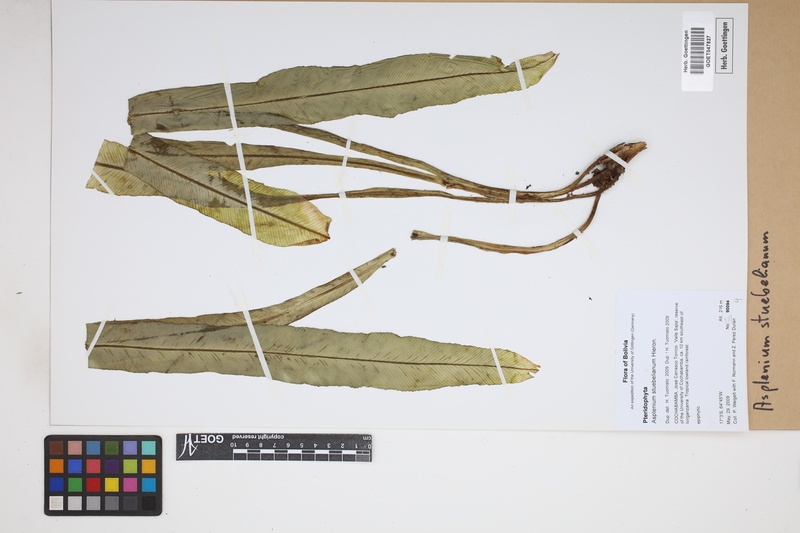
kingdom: Plantae
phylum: Tracheophyta
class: Polypodiopsida
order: Polypodiales
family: Aspleniaceae
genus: Asplenium
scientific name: Asplenium stuebelianum
